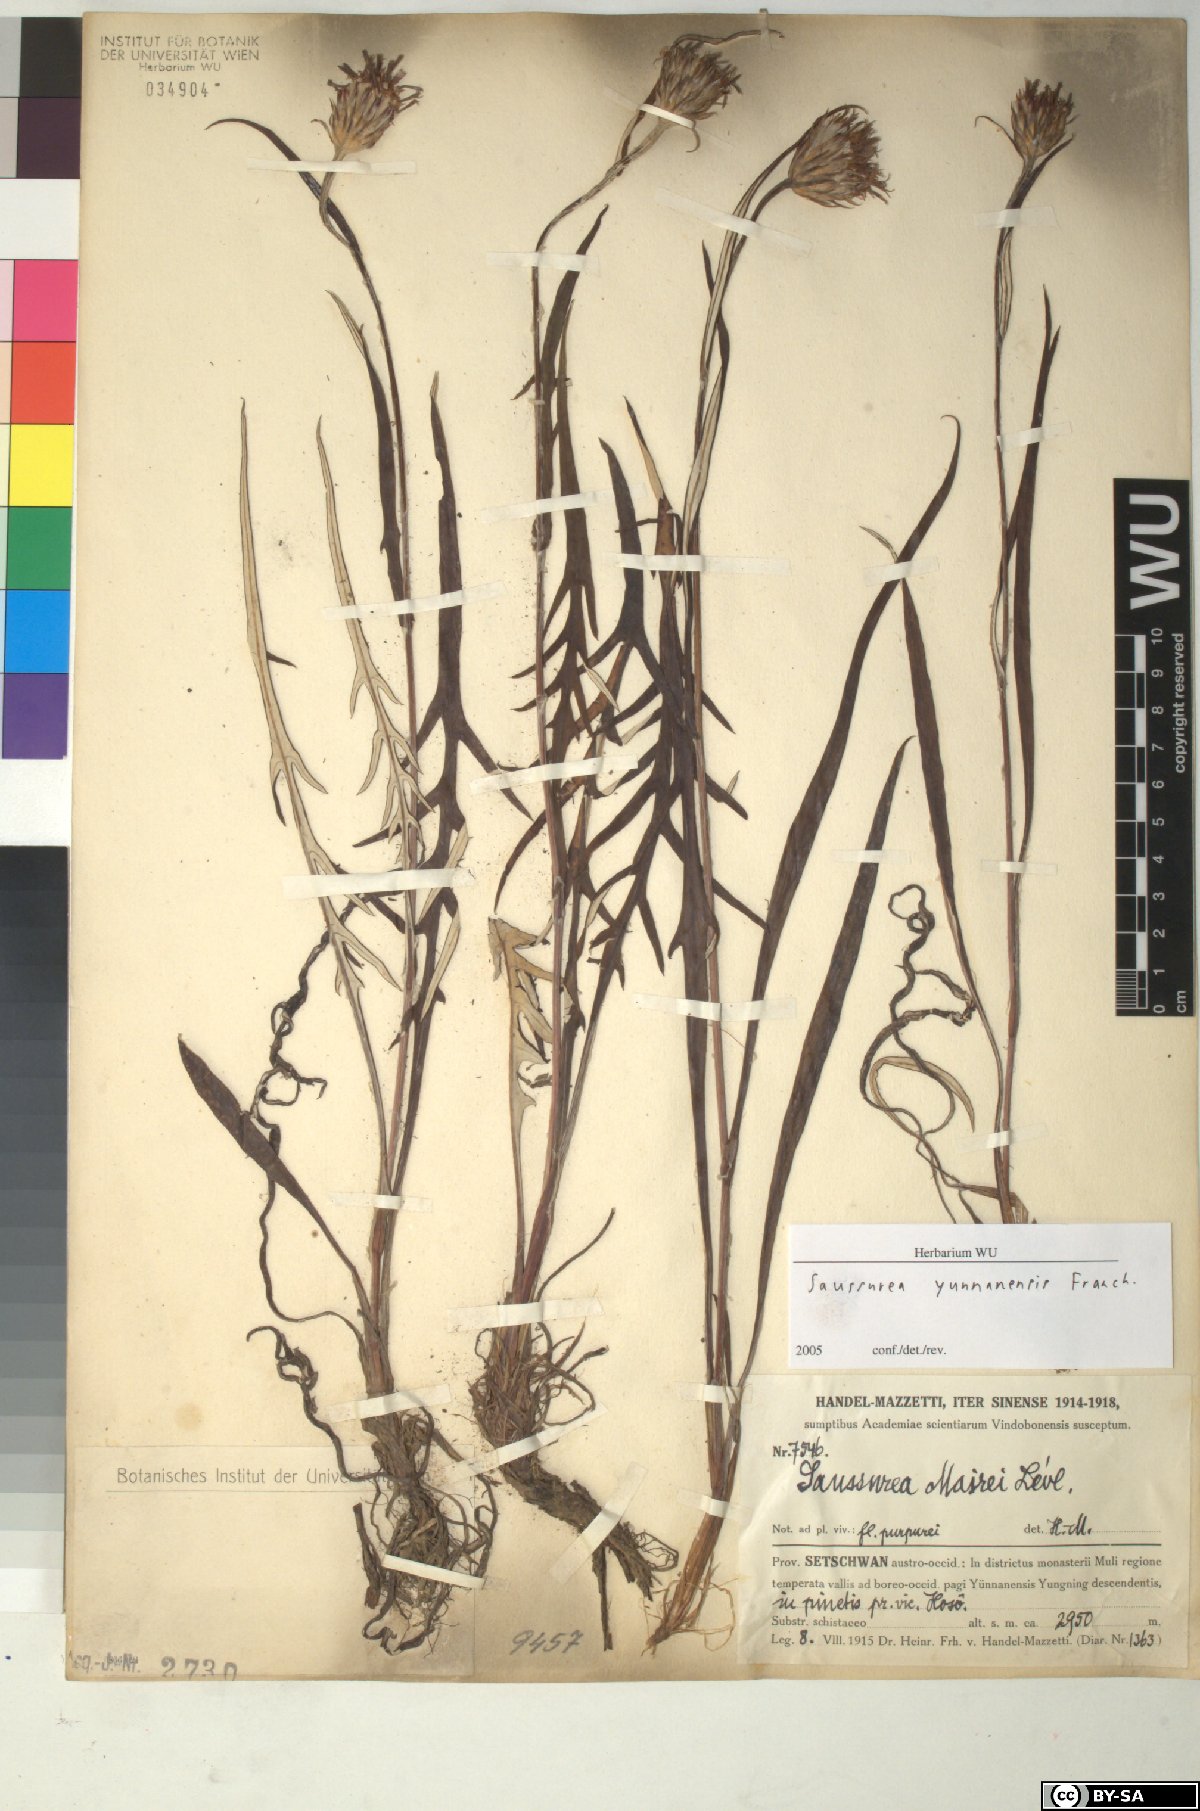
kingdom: Plantae
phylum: Tracheophyta
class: Magnoliopsida
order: Asterales
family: Asteraceae
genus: Saussurea
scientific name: Saussurea yunnanensis
